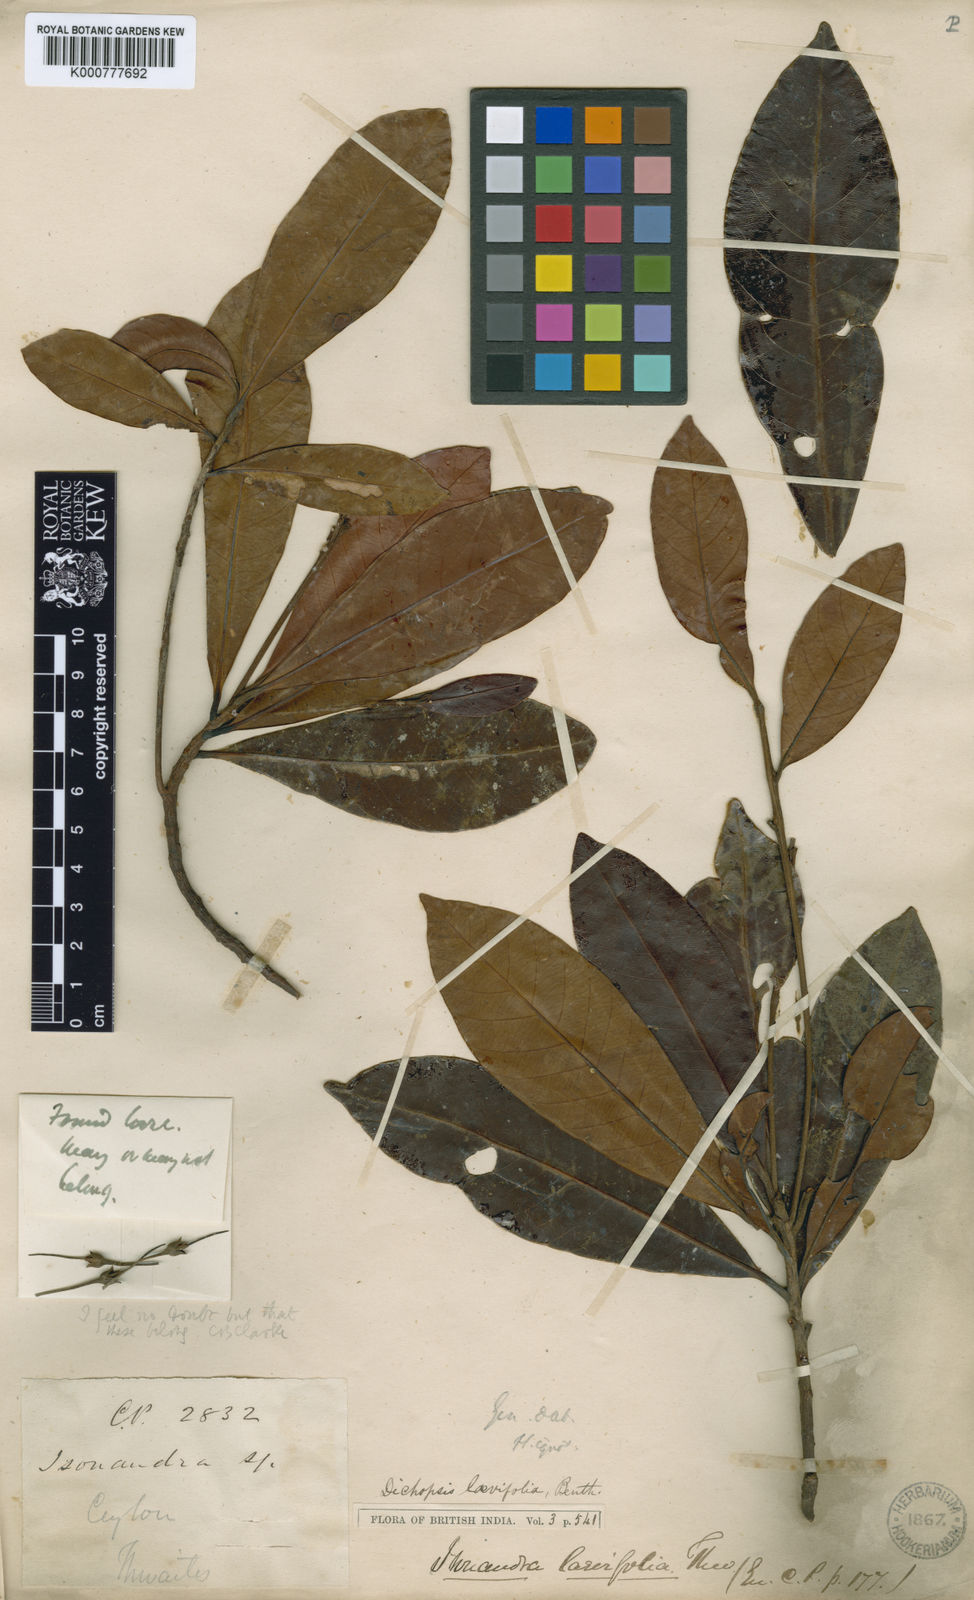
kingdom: Plantae
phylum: Tracheophyta
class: Magnoliopsida
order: Ericales
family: Sapotaceae
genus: Palaquium
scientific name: Palaquium laevifolium
